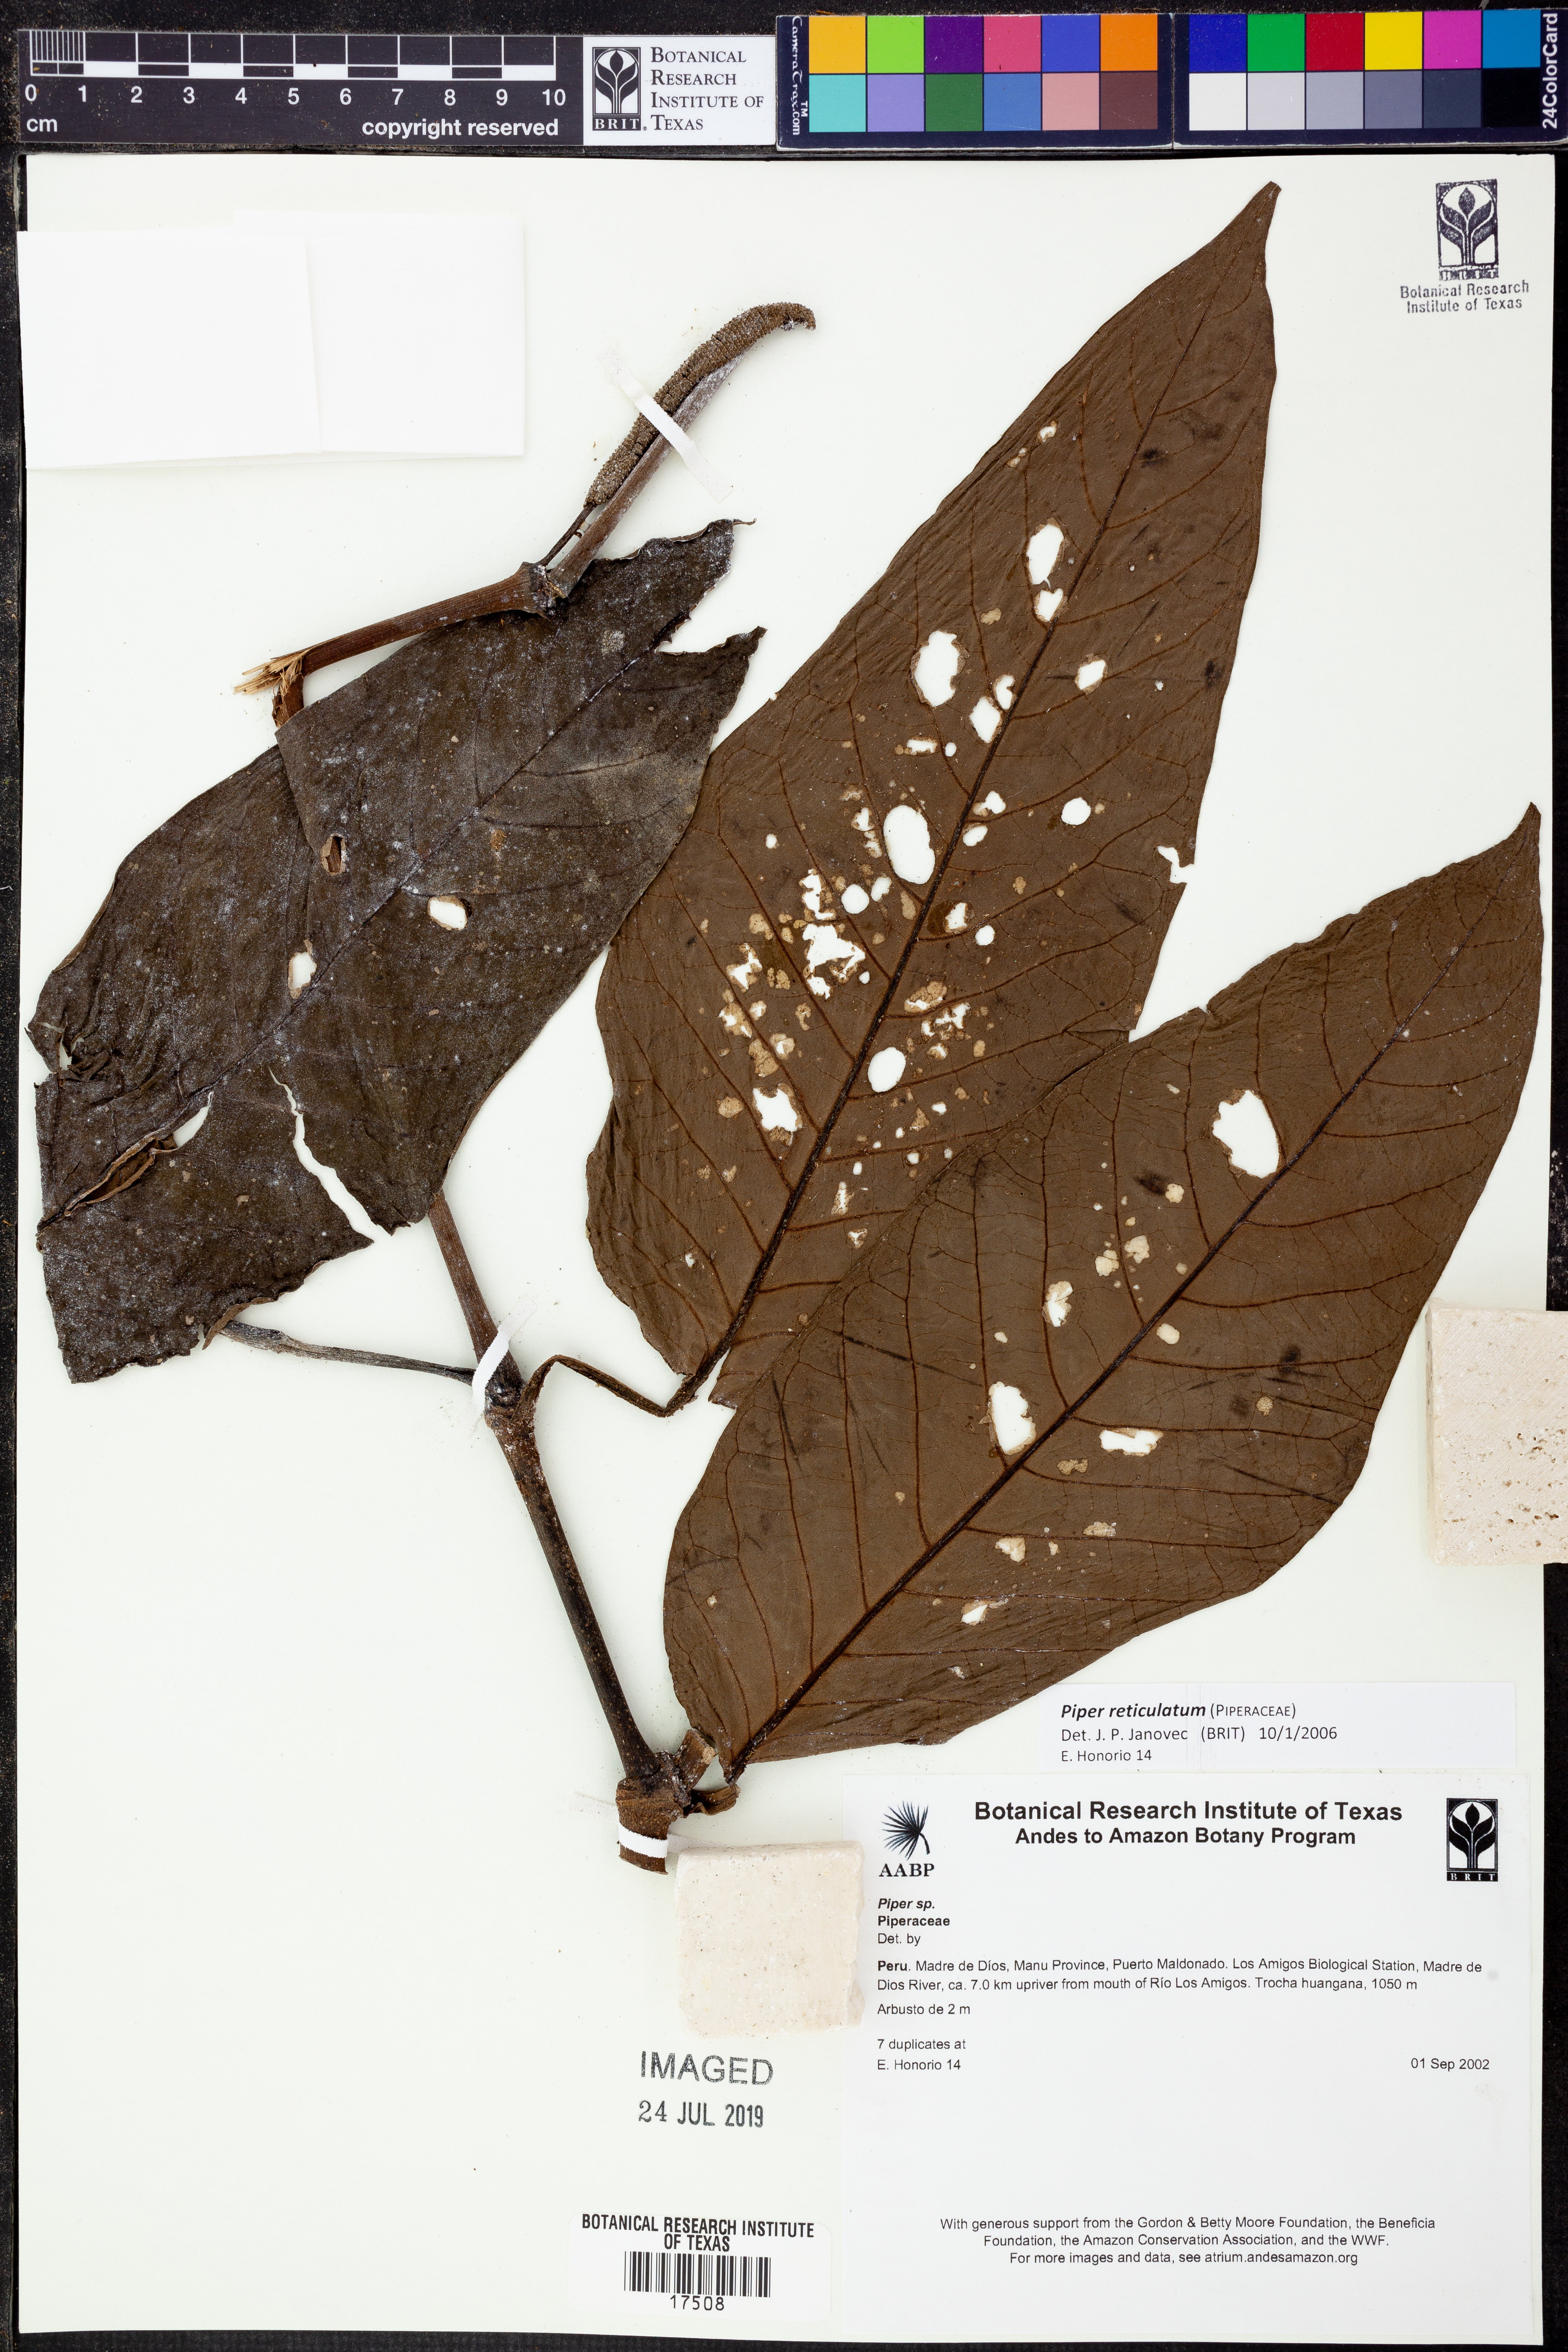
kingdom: Plantae
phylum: Tracheophyta
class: Magnoliopsida
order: Piperales
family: Piperaceae
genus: Piper
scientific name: Piper reticulatum
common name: Wild cane
